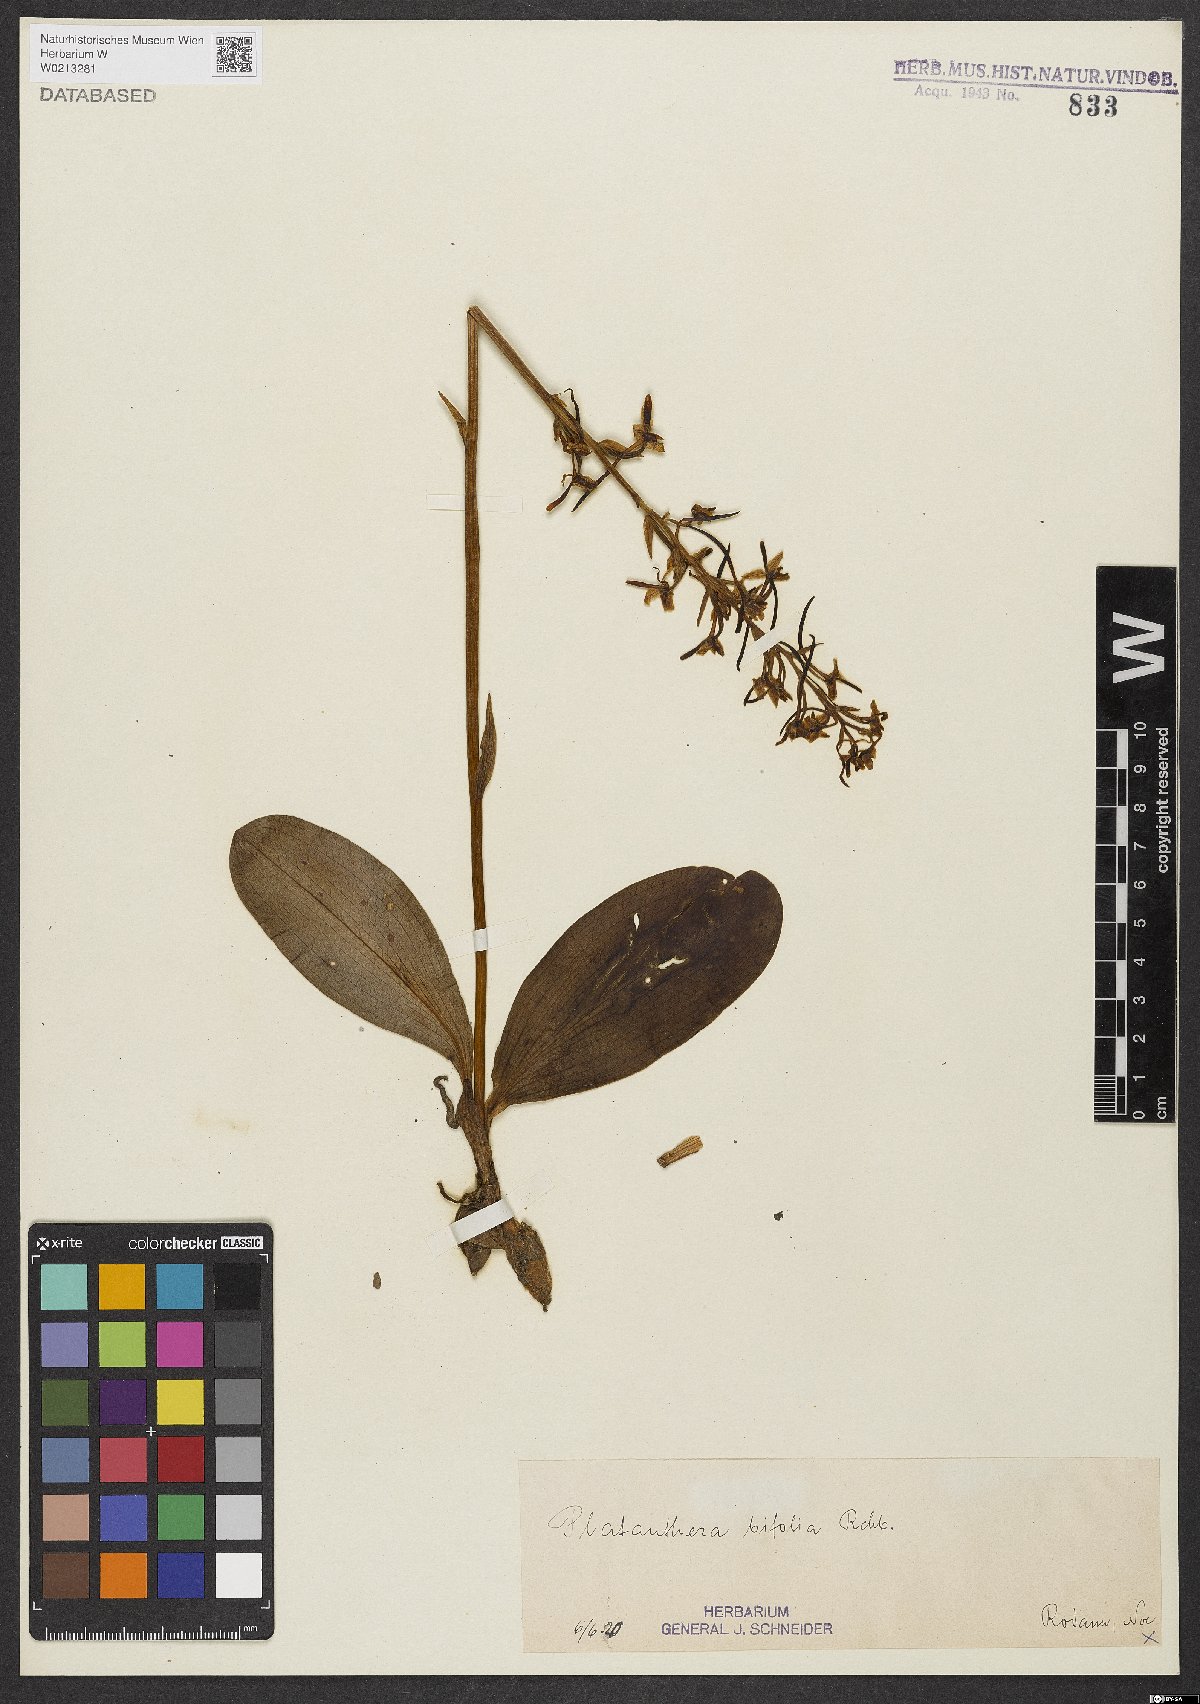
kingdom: Plantae
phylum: Tracheophyta
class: Liliopsida
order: Asparagales
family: Orchidaceae
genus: Platanthera
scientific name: Platanthera bifolia
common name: Lesser butterfly-orchid
